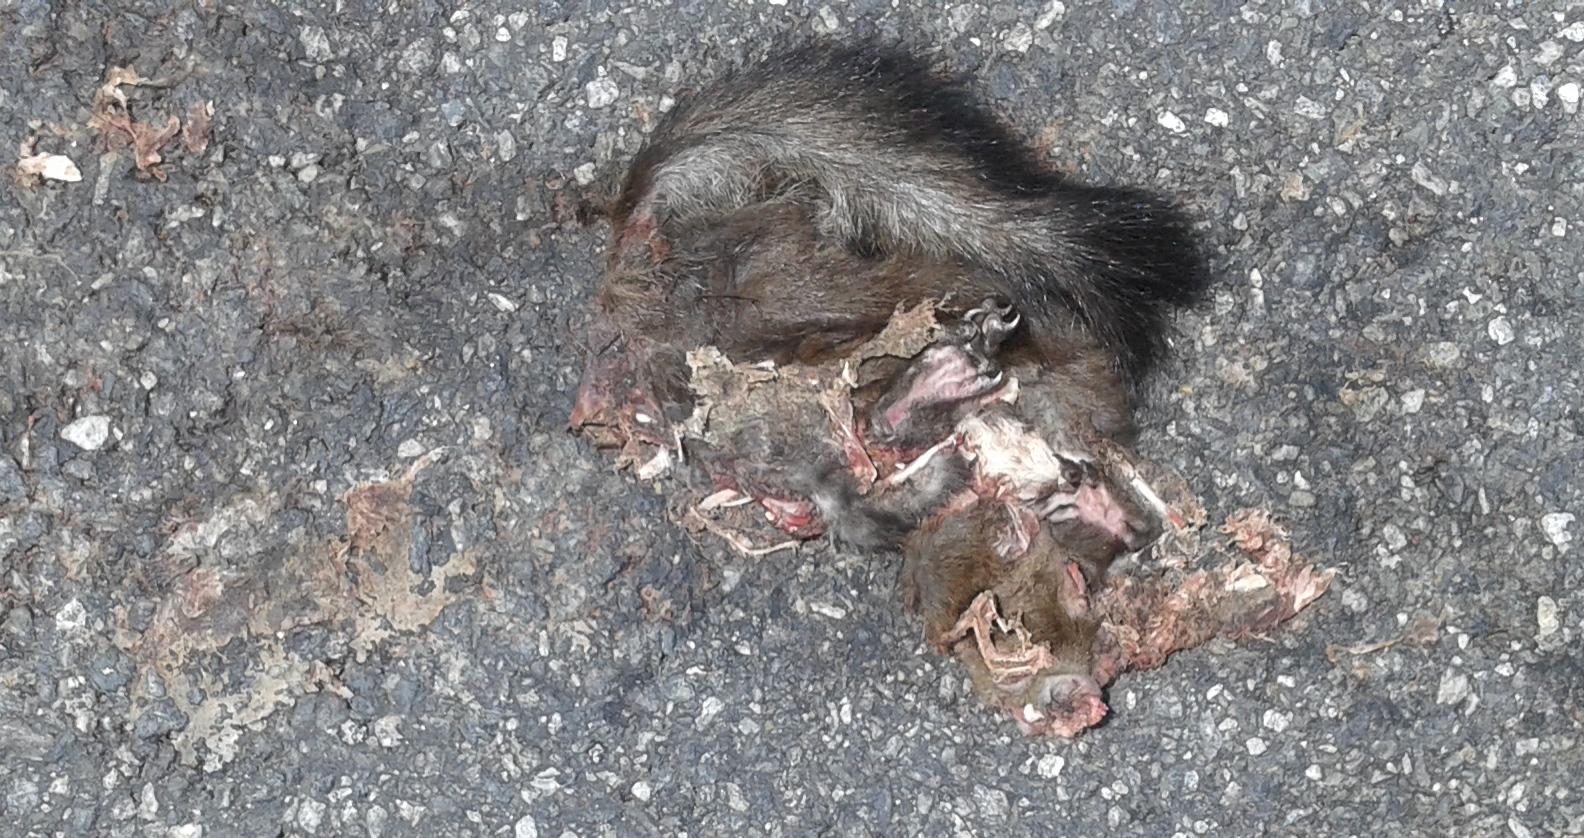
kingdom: Animalia
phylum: Chordata
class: Mammalia
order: Rodentia
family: Sciuridae
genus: Sciurus
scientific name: Sciurus vulgaris
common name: Eurasian red squirrel
